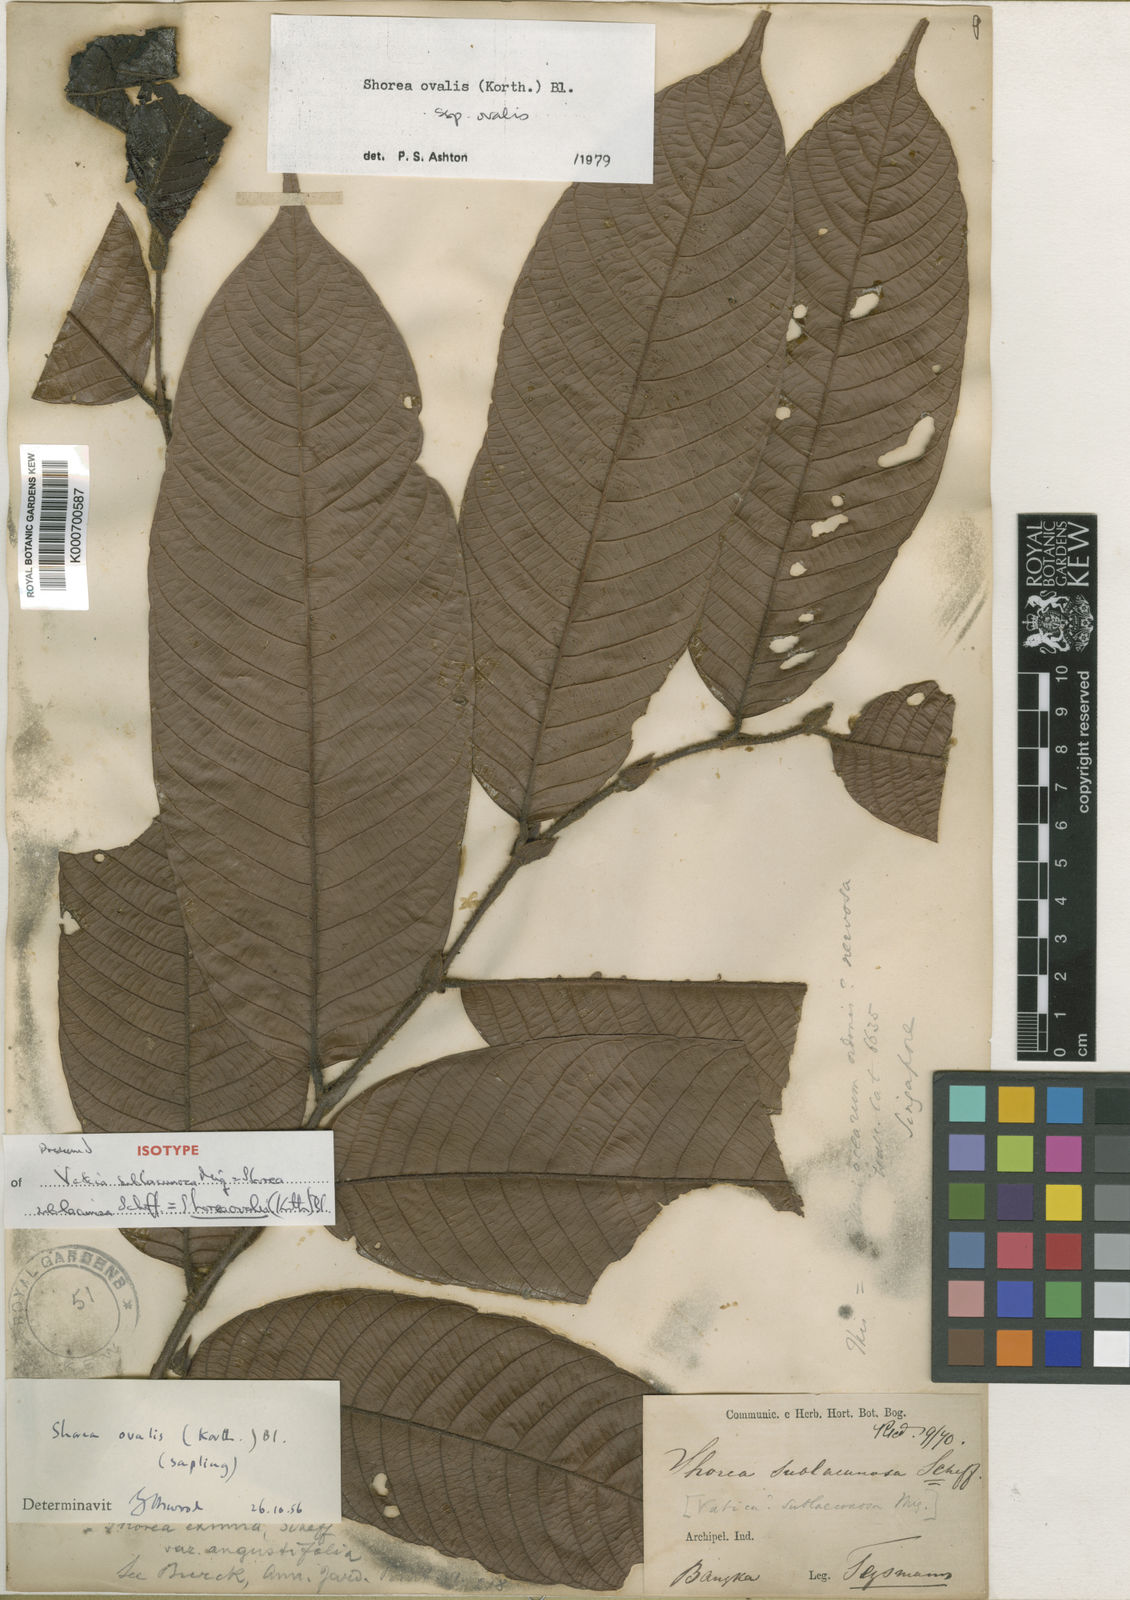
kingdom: Plantae
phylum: Tracheophyta
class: Magnoliopsida
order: Malvales
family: Dipterocarpaceae
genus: Shorea
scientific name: Shorea ovalis
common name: Light red meranti
